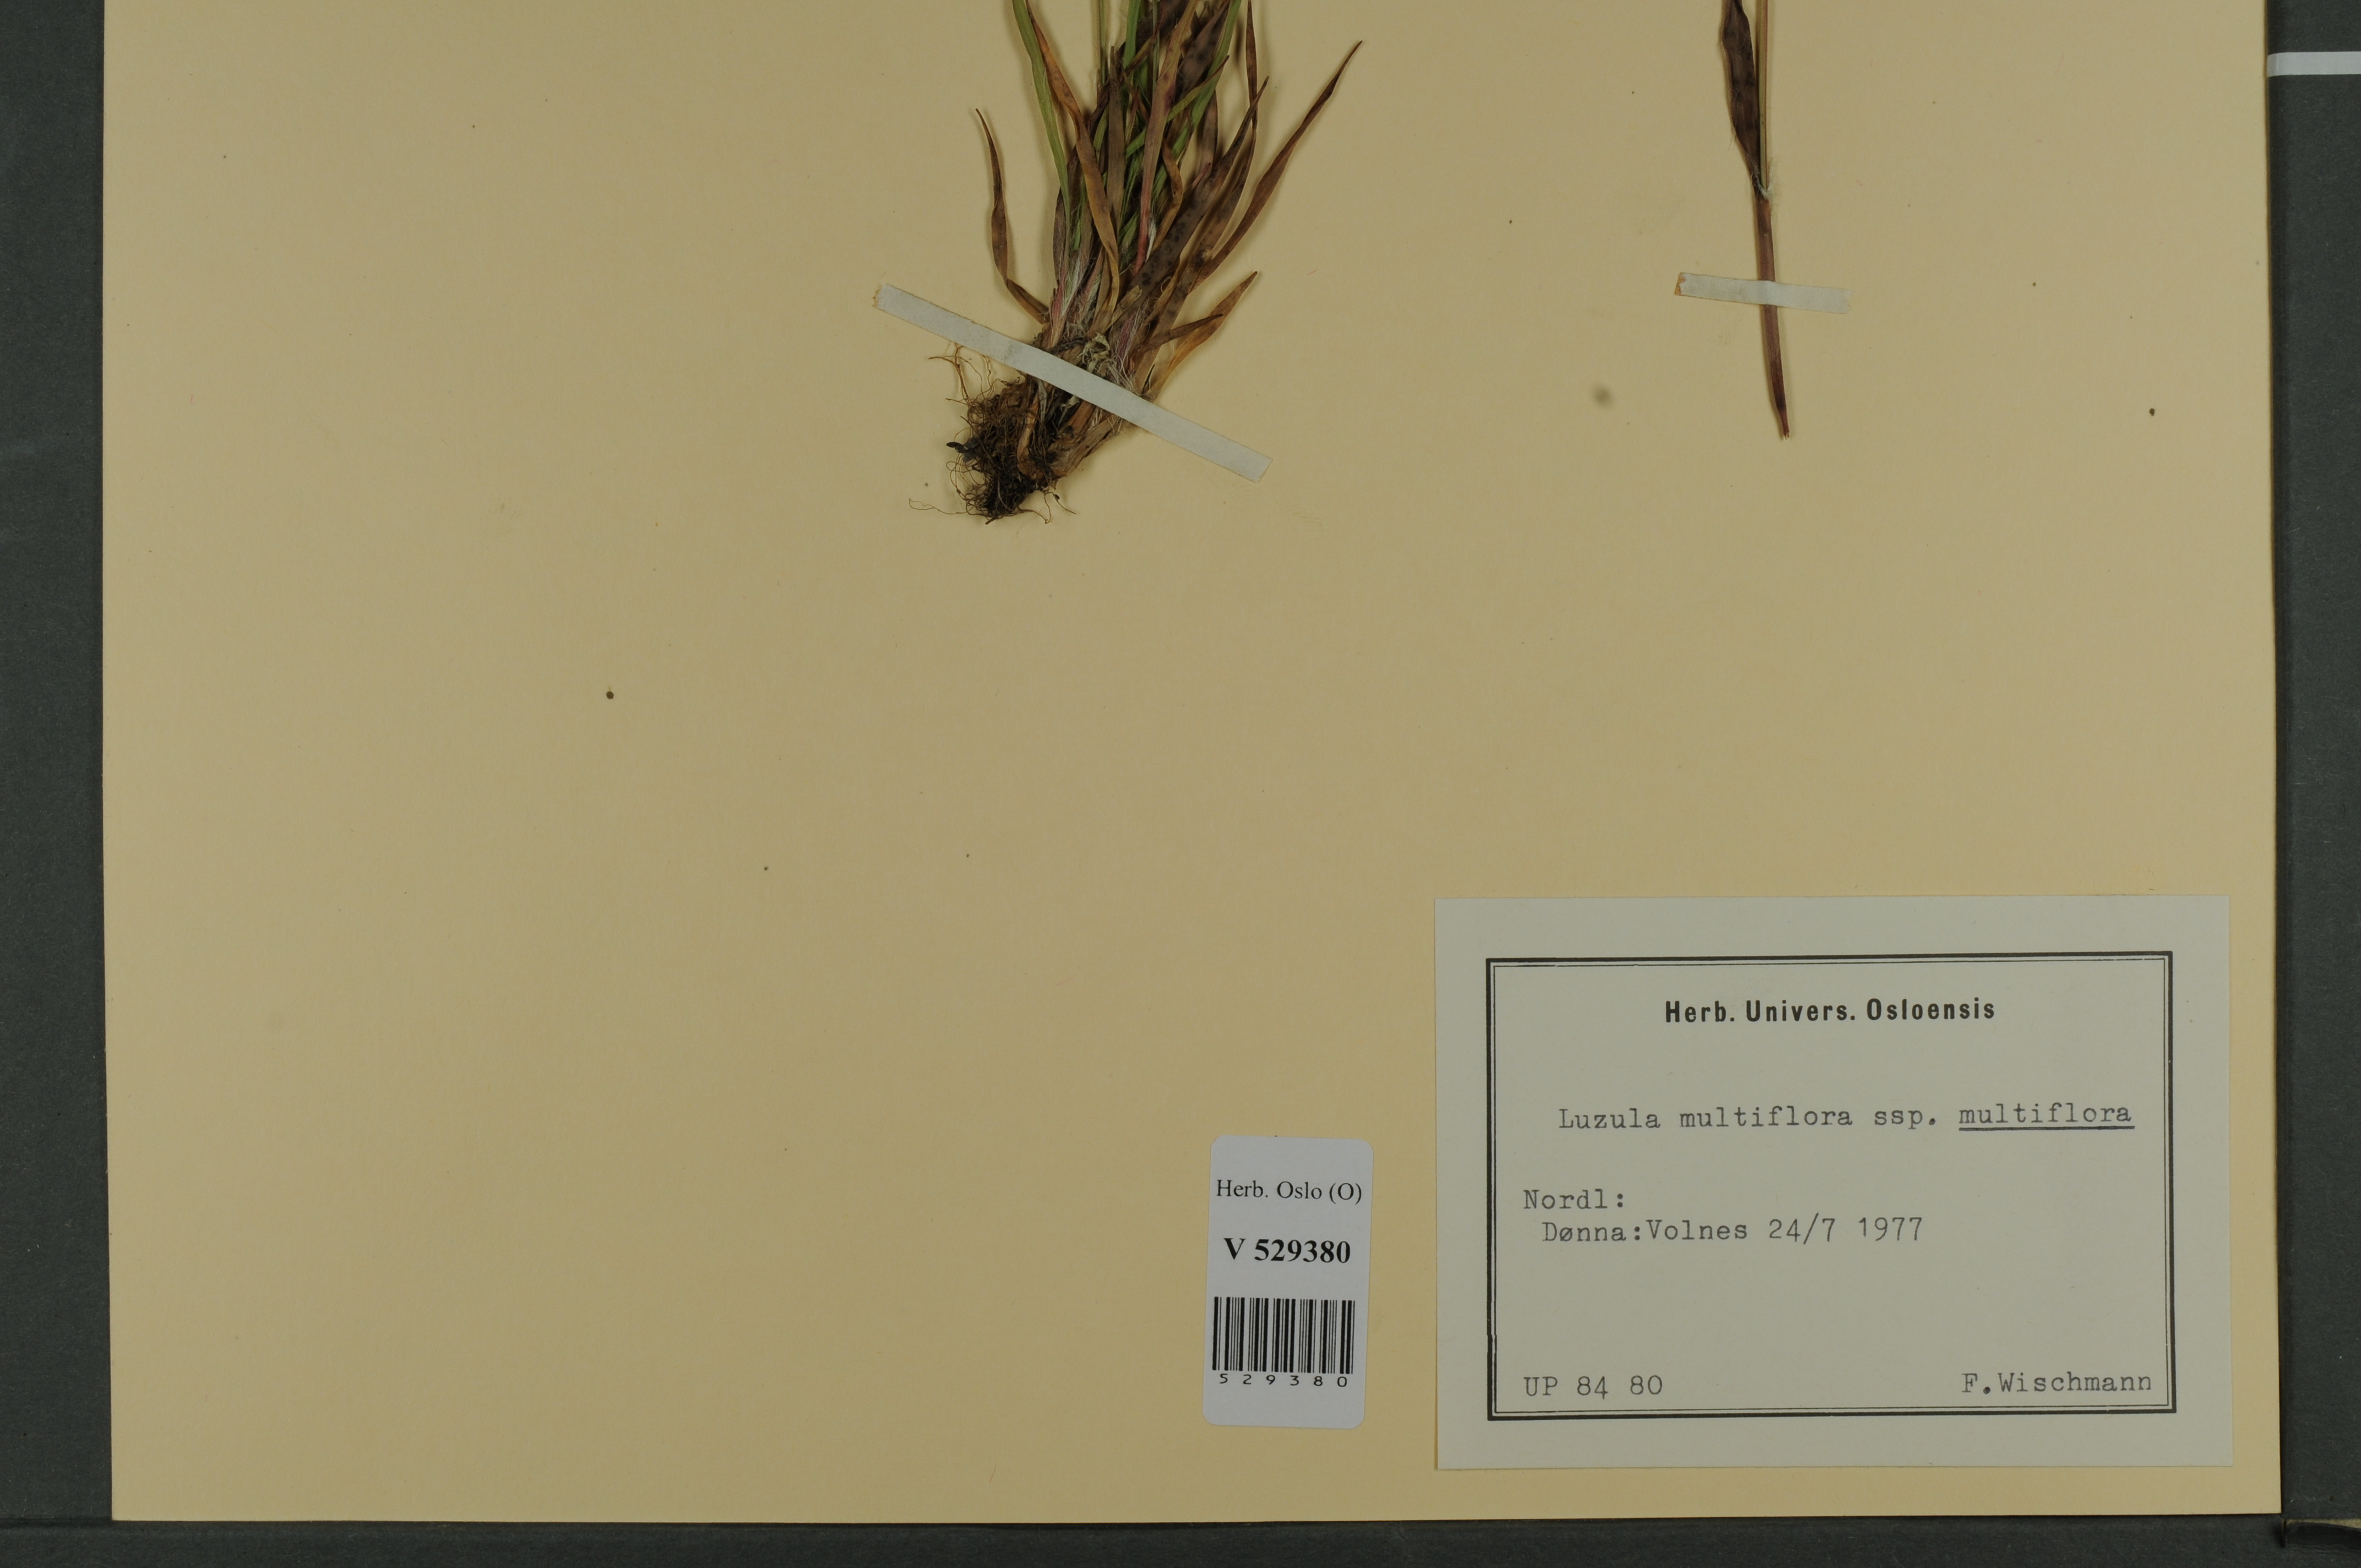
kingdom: Plantae
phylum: Tracheophyta
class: Liliopsida
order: Poales
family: Juncaceae
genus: Luzula
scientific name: Luzula multiflora
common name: Heath wood-rush
